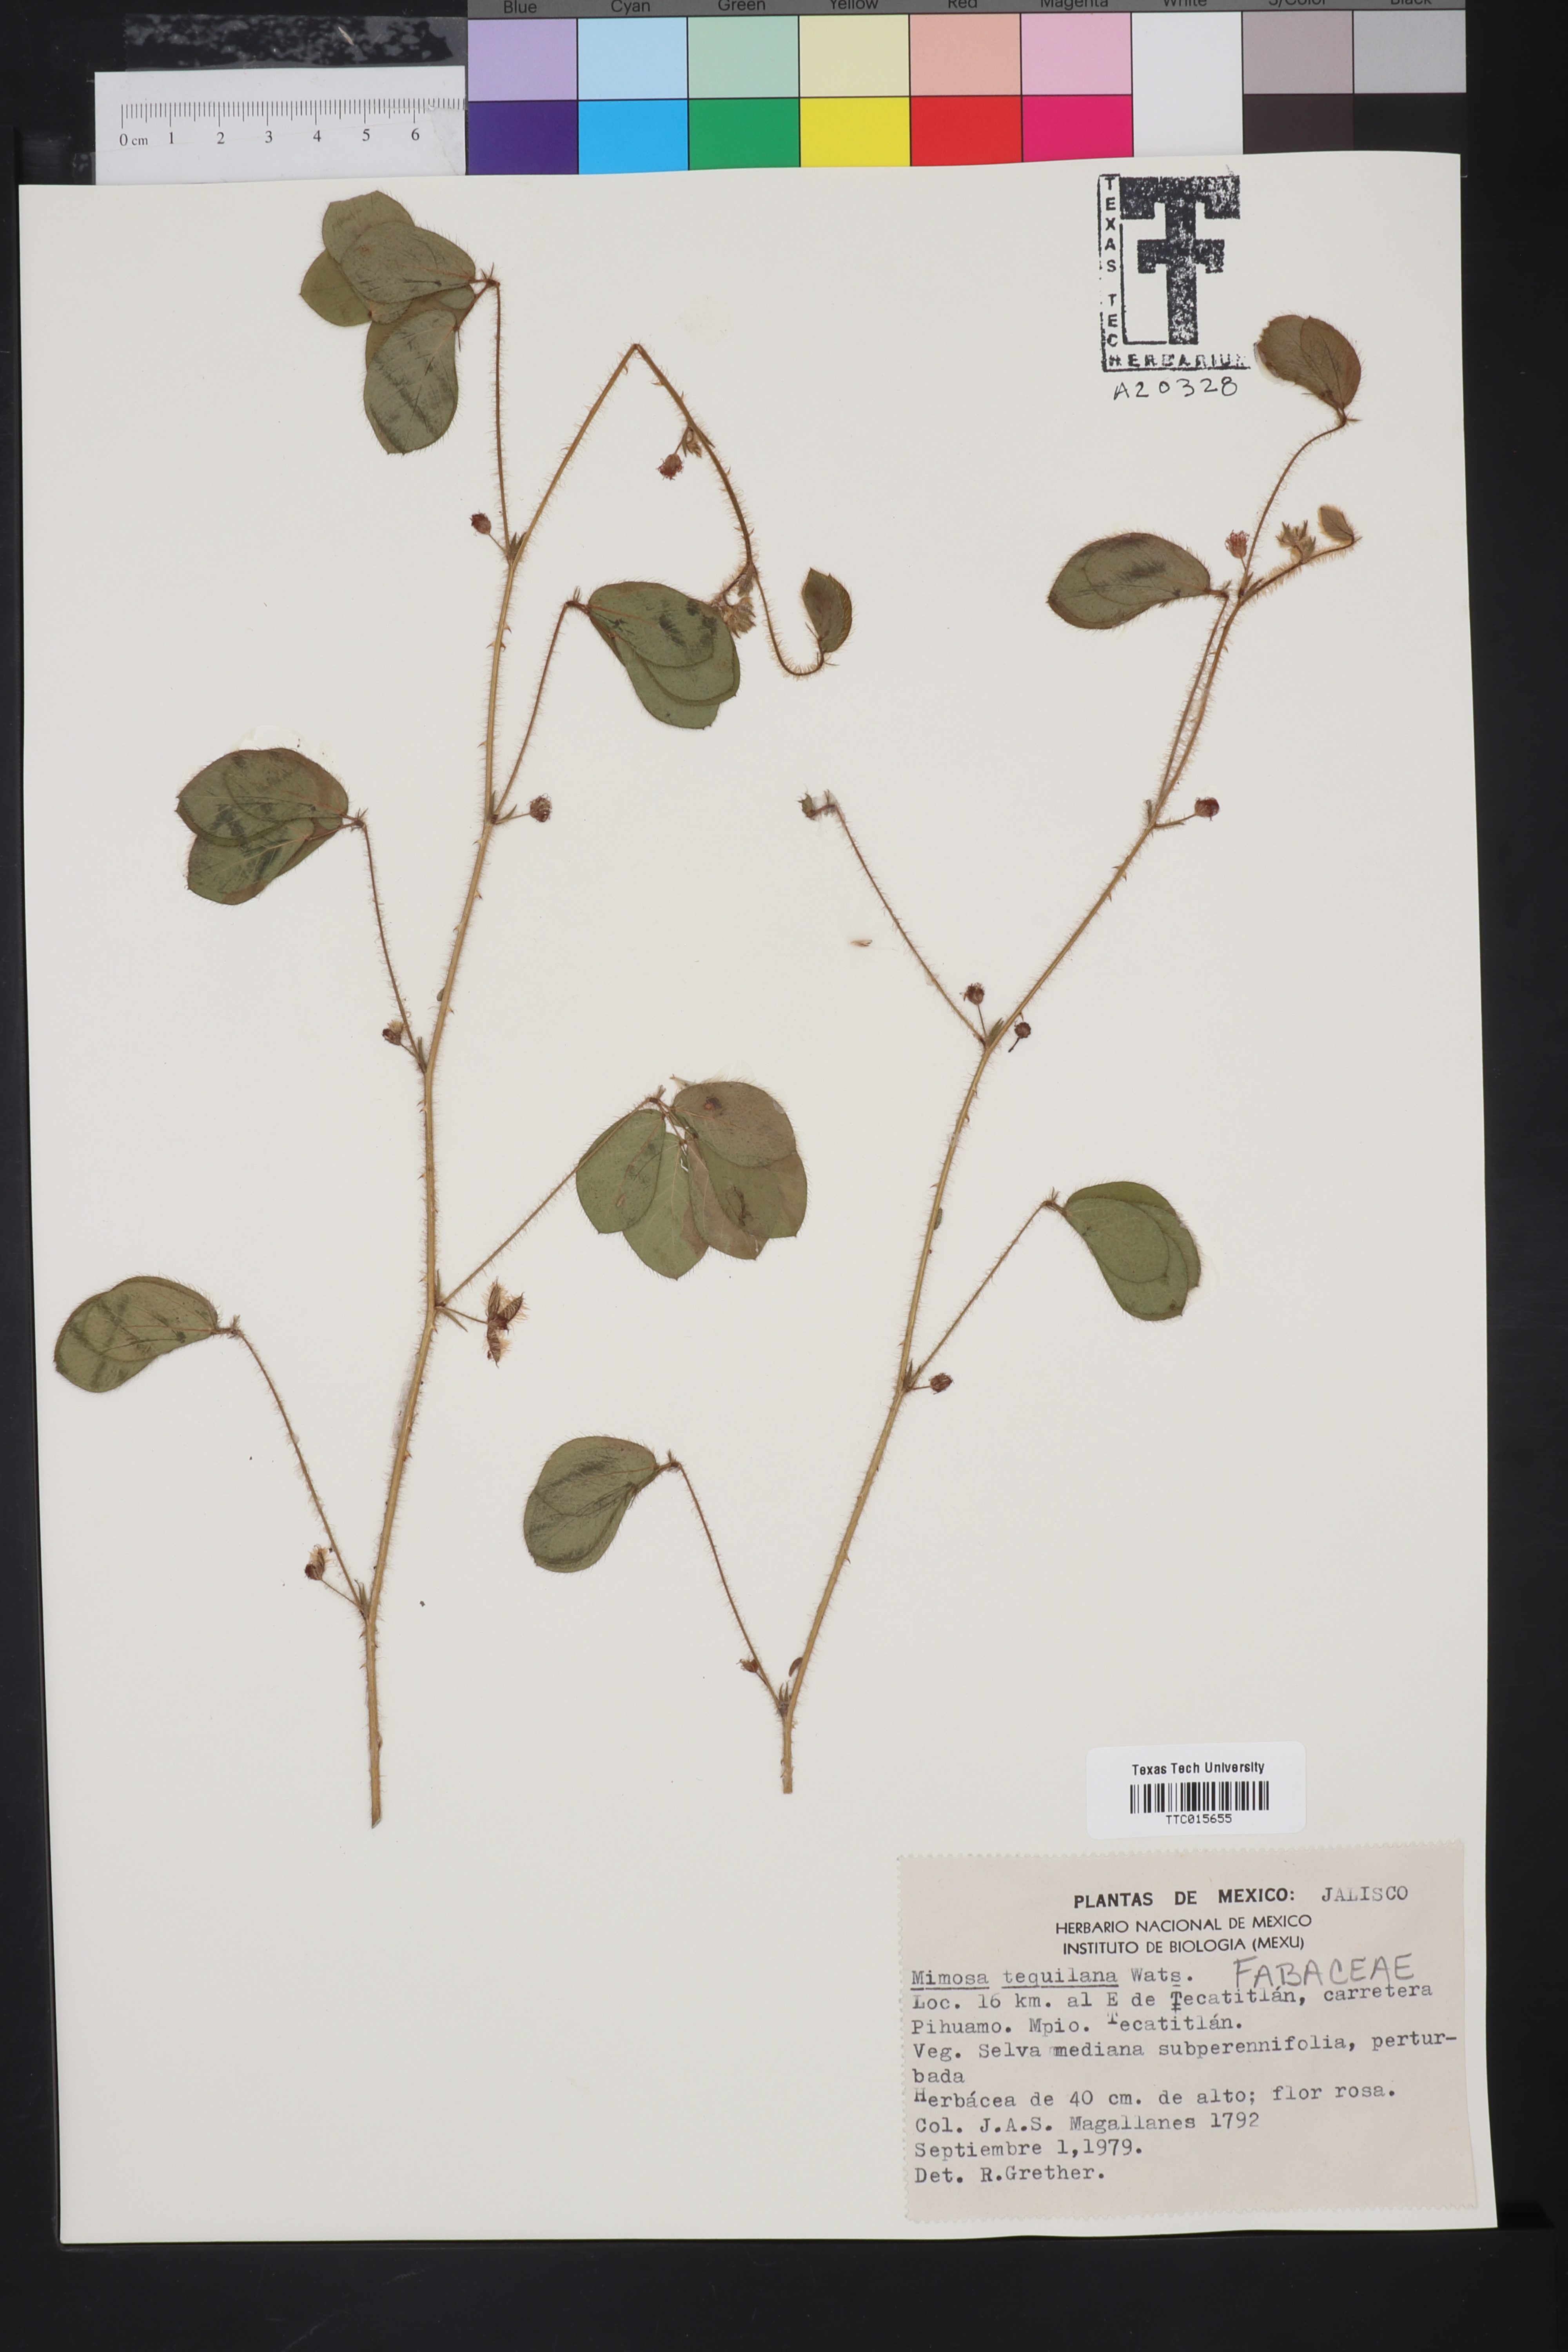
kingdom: Plantae
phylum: Tracheophyta
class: Magnoliopsida
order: Fabales
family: Fabaceae
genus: Mimosa
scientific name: Mimosa tequilana
